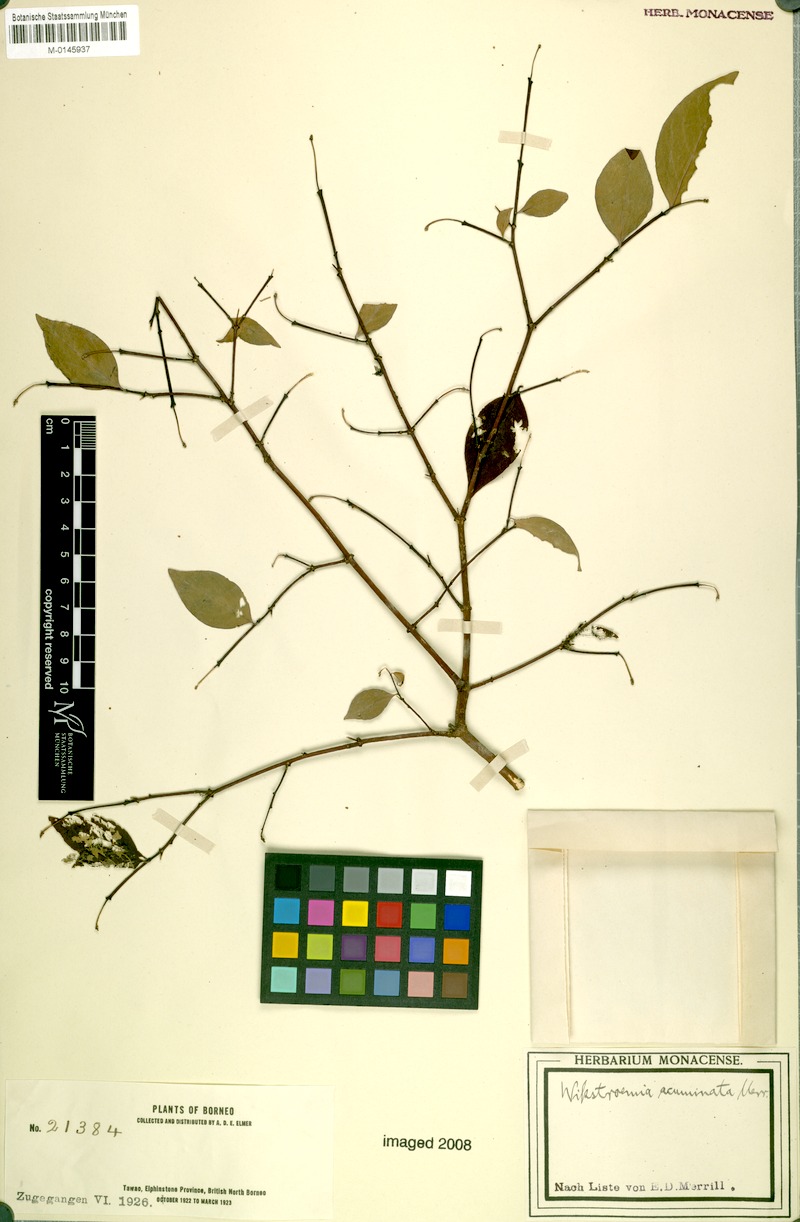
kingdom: Plantae
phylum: Tracheophyta
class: Magnoliopsida
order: Malvales
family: Thymelaeaceae
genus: Wikstroemia
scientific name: Wikstroemia tenuiramis
